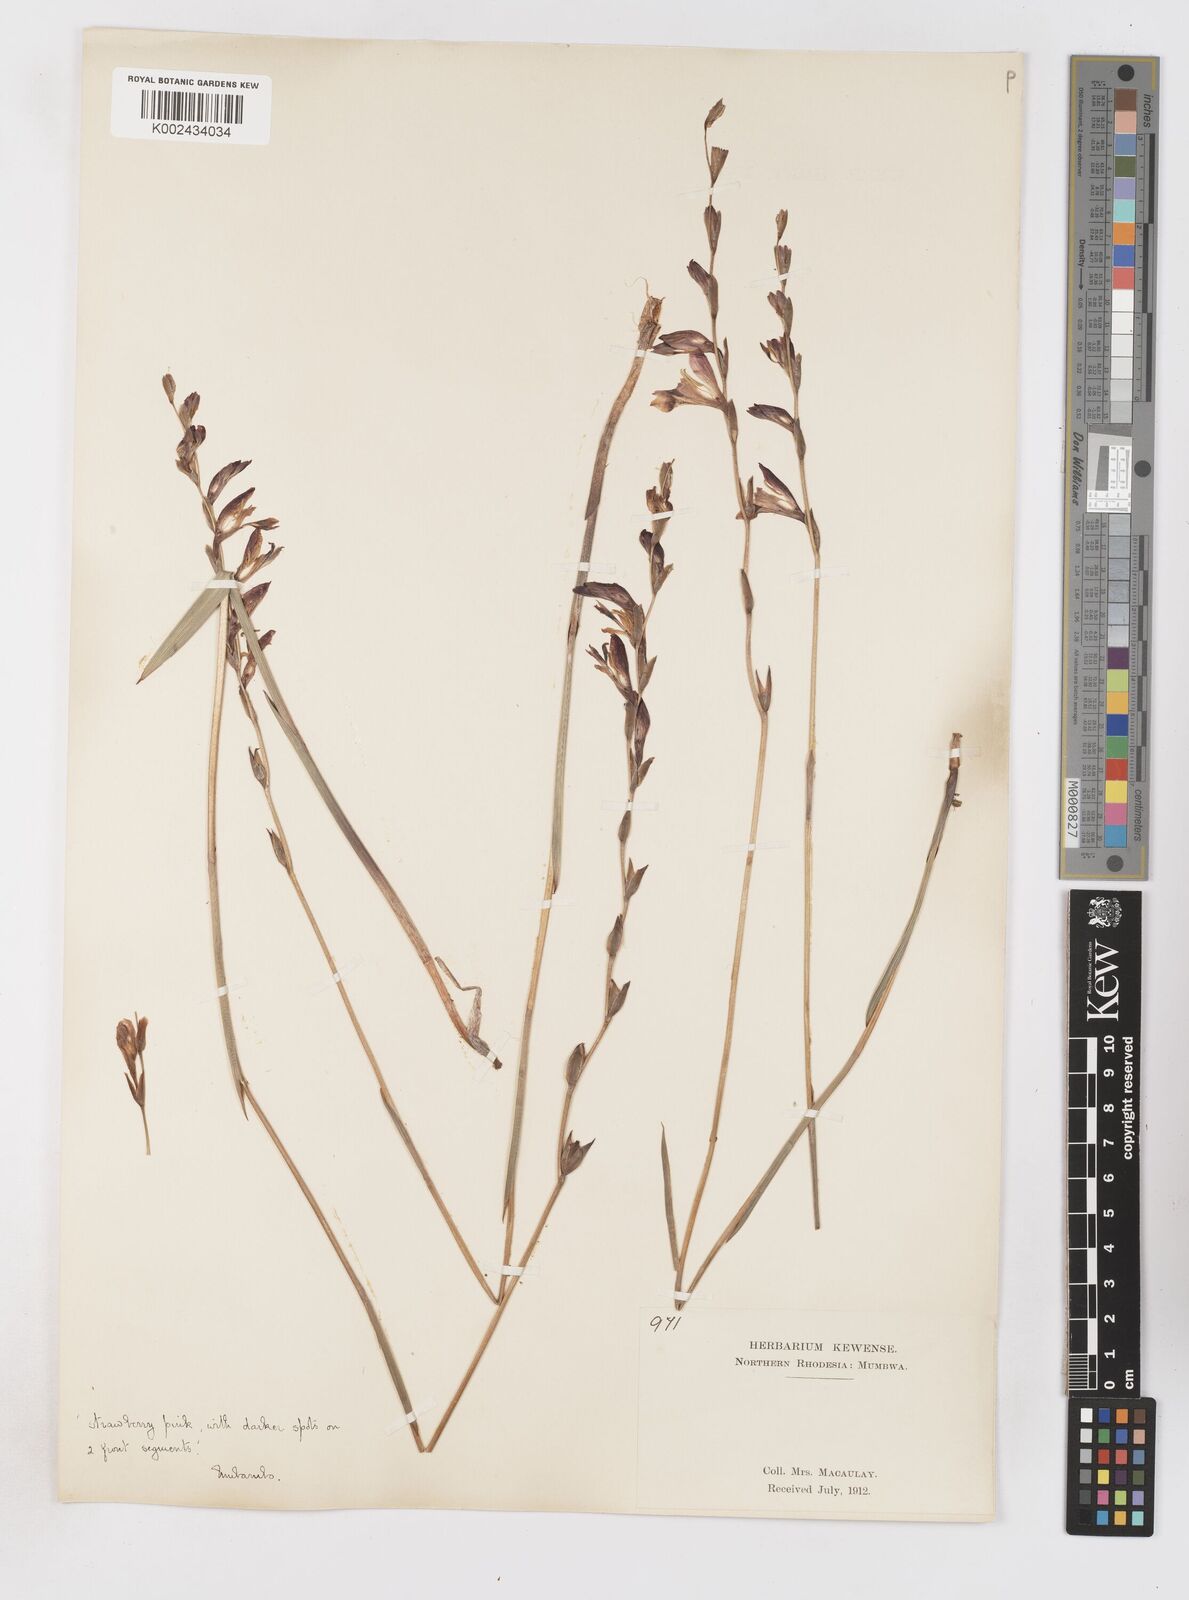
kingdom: Plantae
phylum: Tracheophyta
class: Liliopsida
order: Asparagales
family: Iridaceae
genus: Gladiolus
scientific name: Gladiolus atropurpureus
